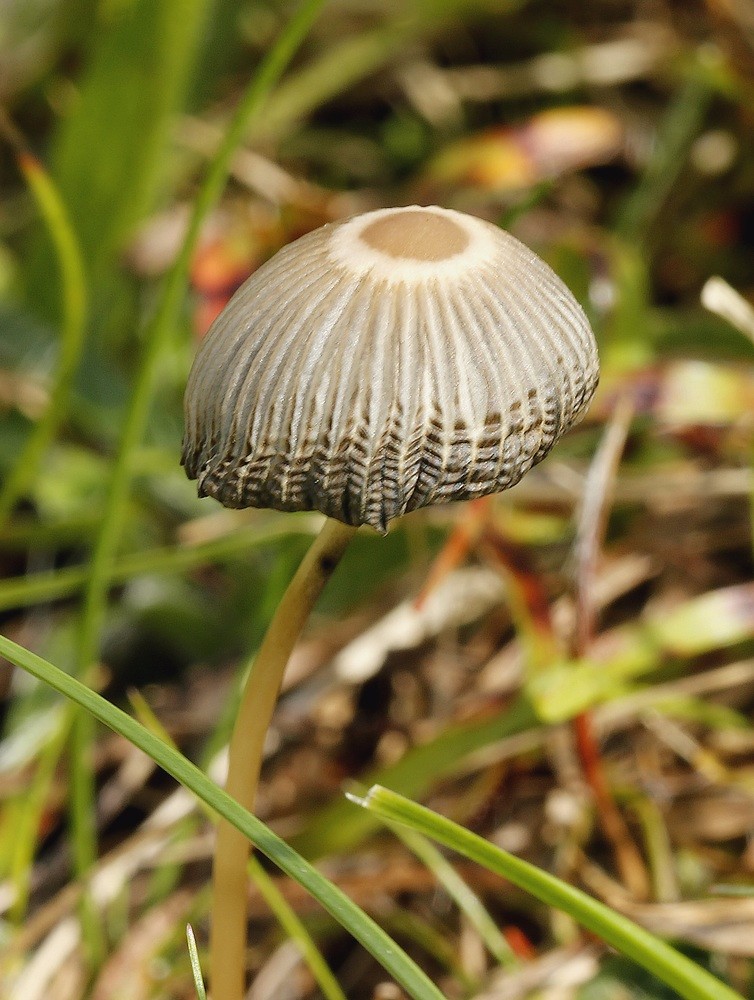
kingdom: Fungi
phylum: Basidiomycota
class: Agaricomycetes
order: Agaricales
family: Psathyrellaceae
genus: Parasola
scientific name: Parasola
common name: hjulhat
